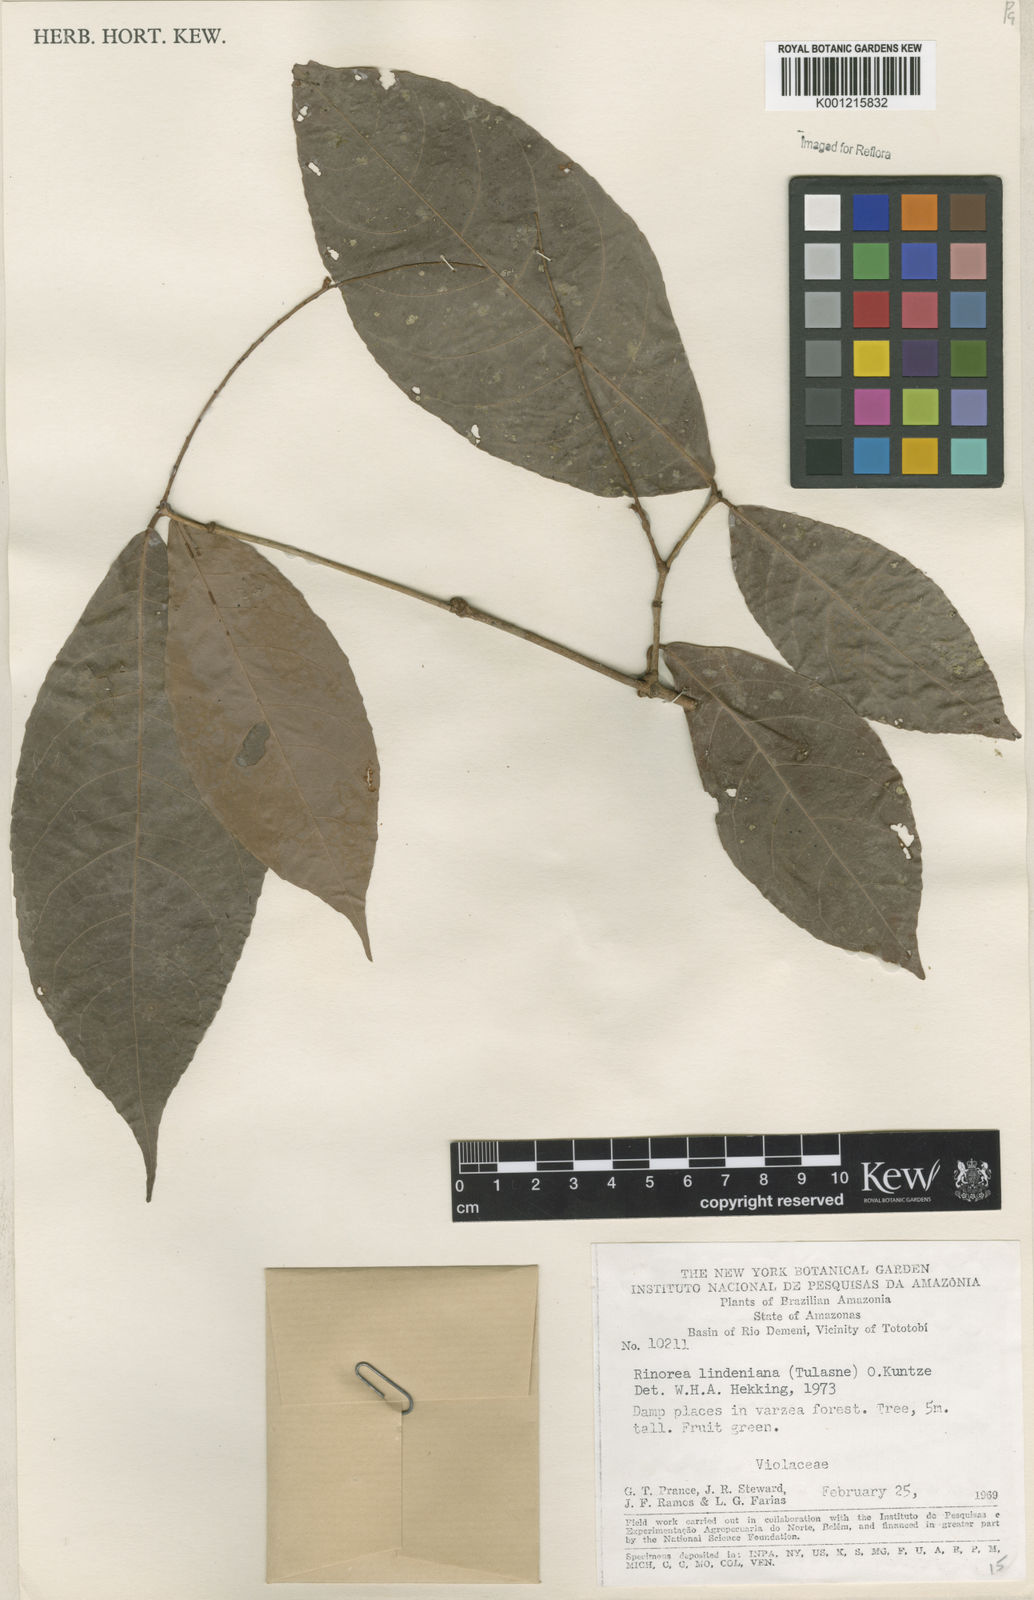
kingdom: Plantae
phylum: Tracheophyta
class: Magnoliopsida
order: Malpighiales
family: Violaceae
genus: Rinorea
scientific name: Rinorea lindeniana
